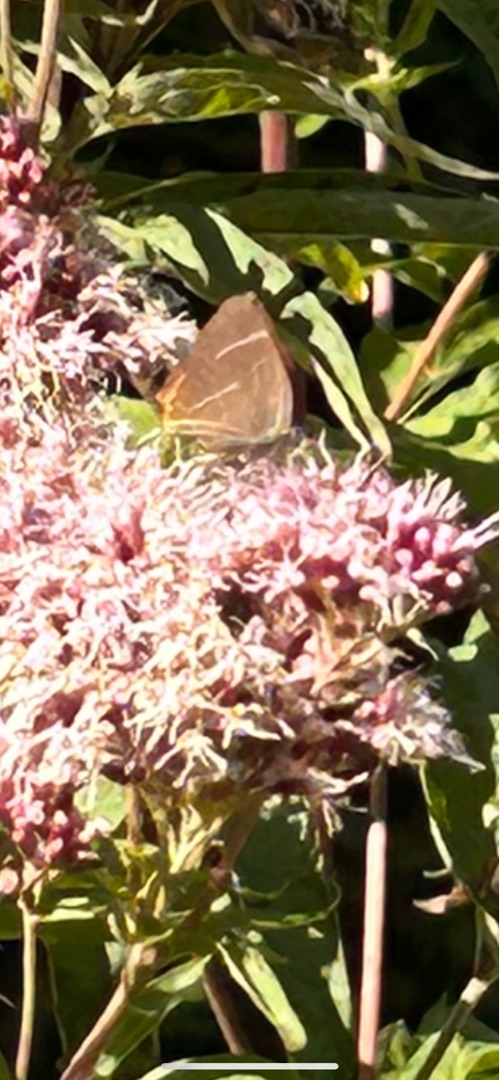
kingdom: Animalia
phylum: Arthropoda
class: Insecta
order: Lepidoptera
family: Lycaenidae
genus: Satyrium
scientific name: Satyrium w-album
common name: Det hvide W
